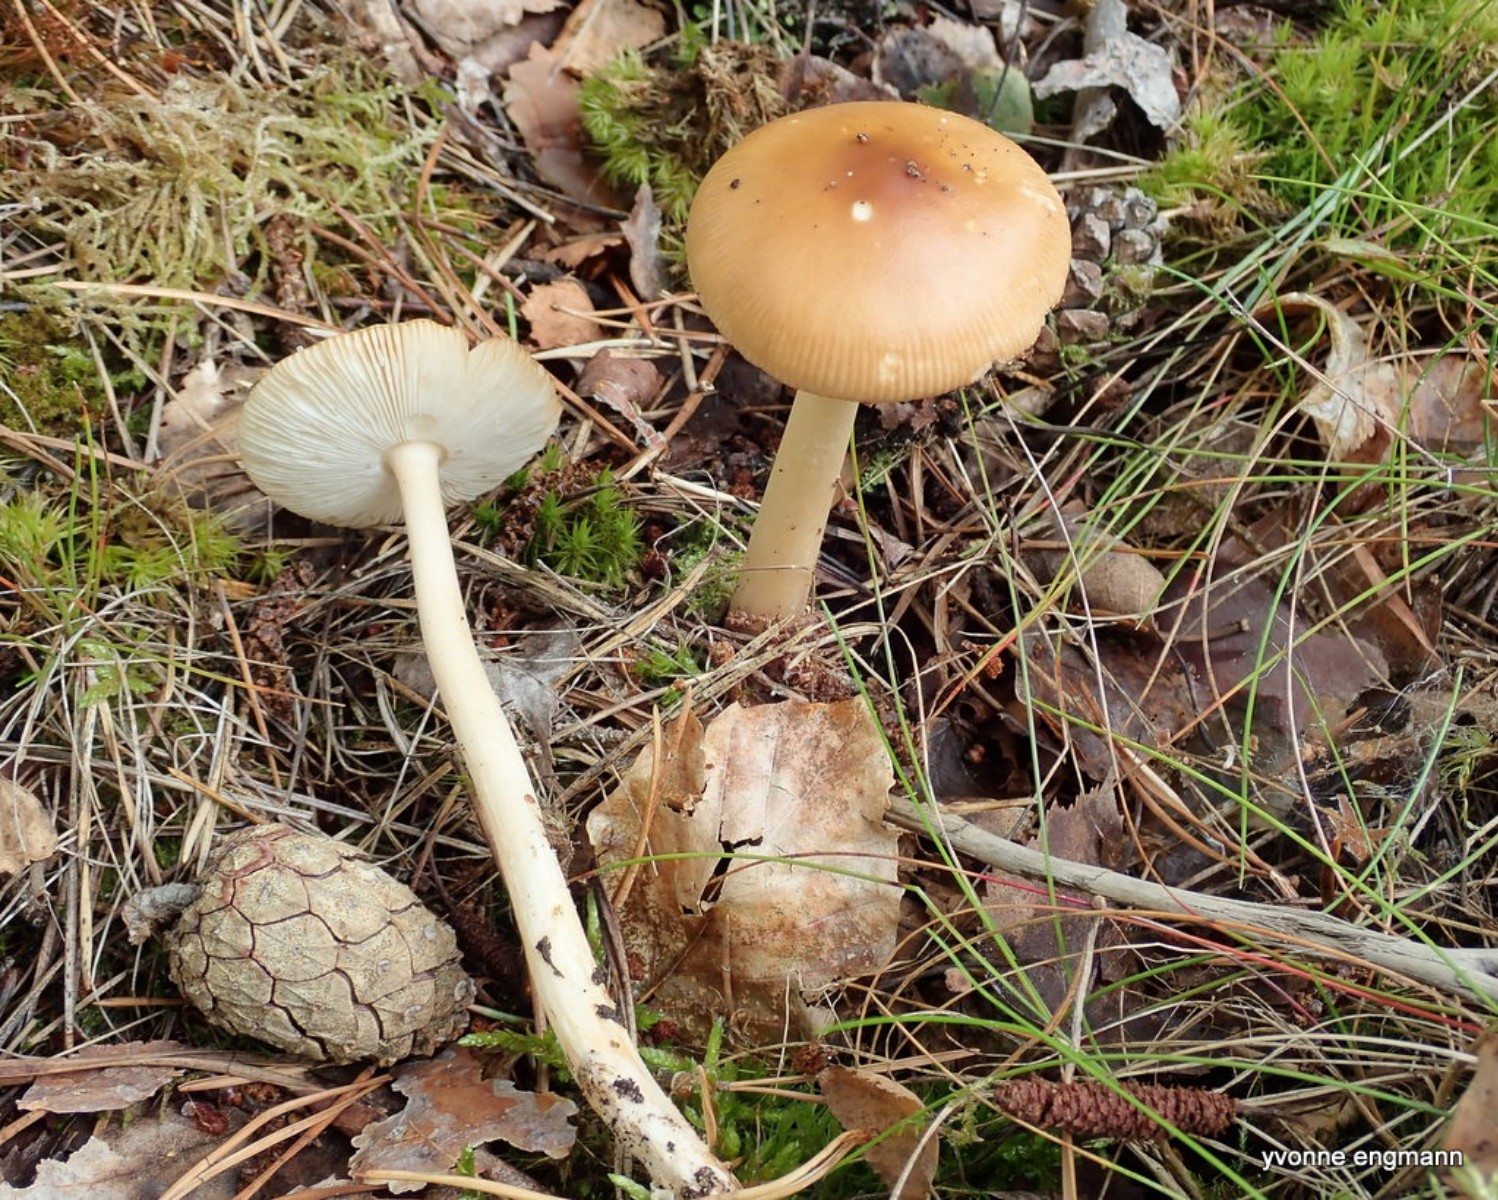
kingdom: Fungi
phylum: Basidiomycota
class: Agaricomycetes
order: Agaricales
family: Amanitaceae
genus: Amanita
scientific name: Amanita fulva
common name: brun kam-fluesvamp
